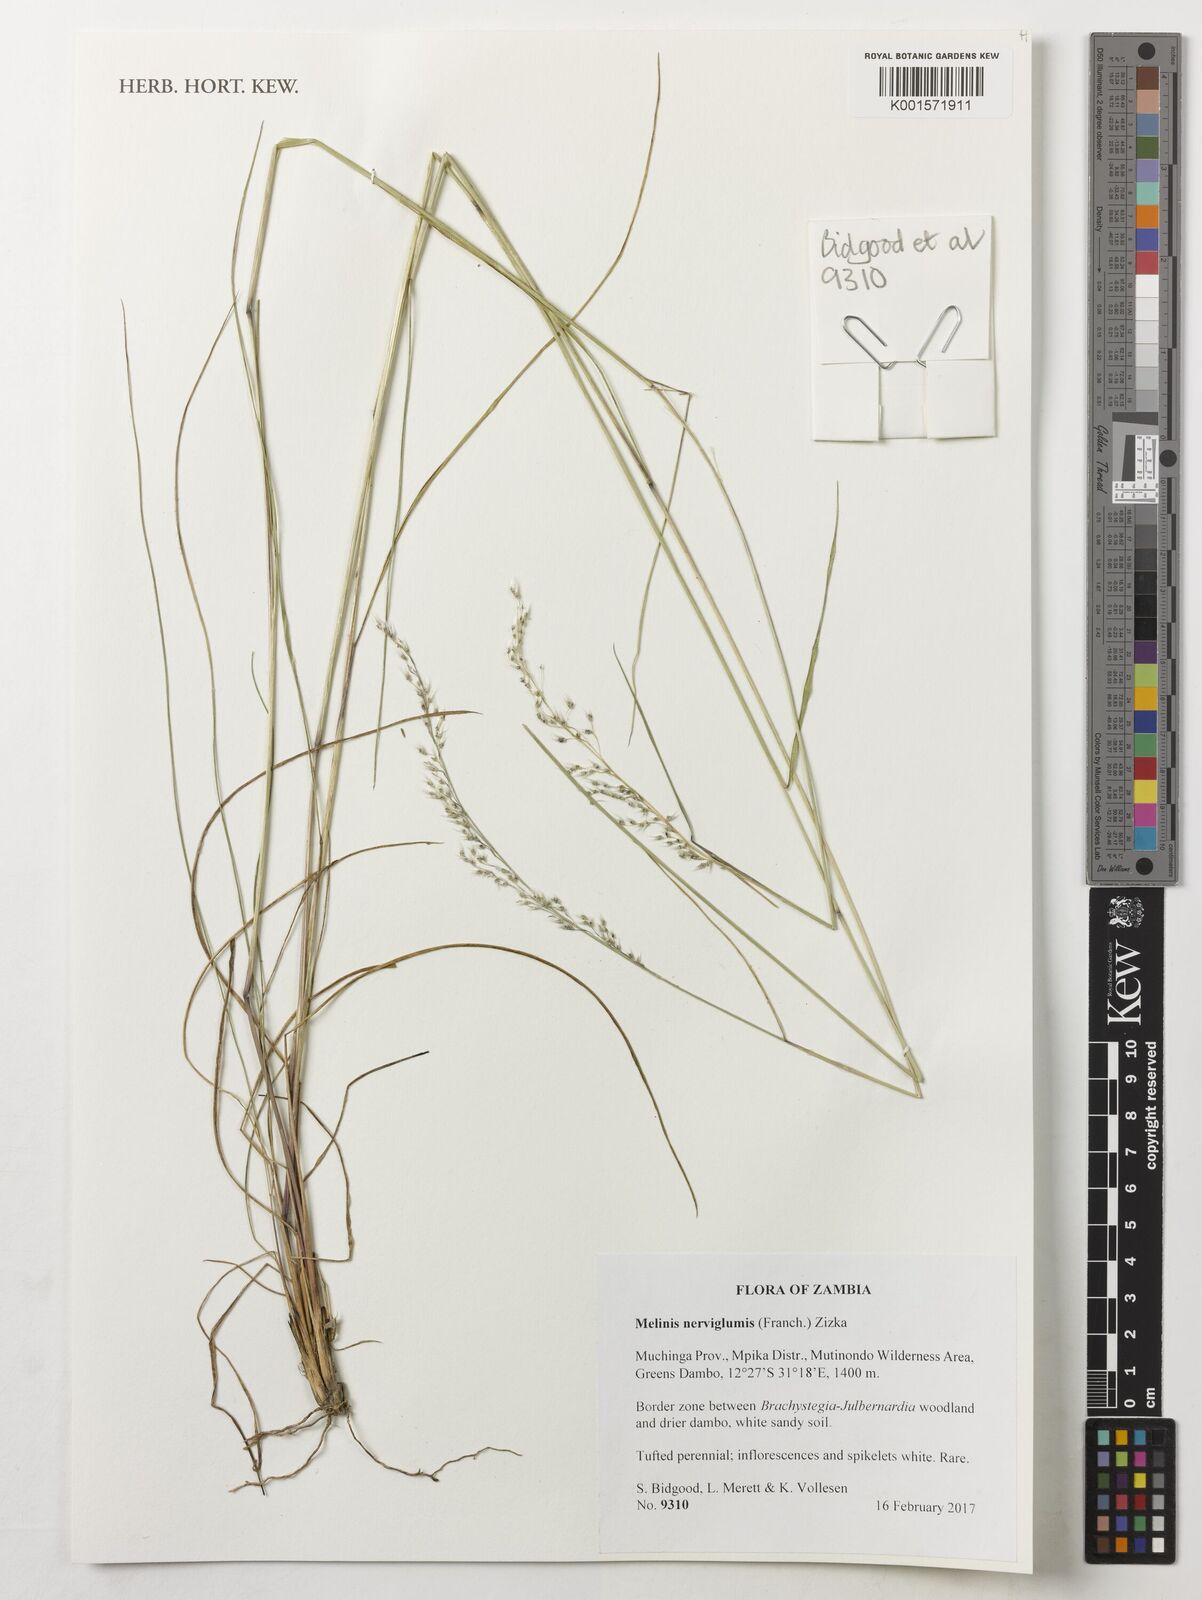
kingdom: Plantae
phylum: Tracheophyta
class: Liliopsida
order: Poales
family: Poaceae
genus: Melinis
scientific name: Melinis nerviglumis
